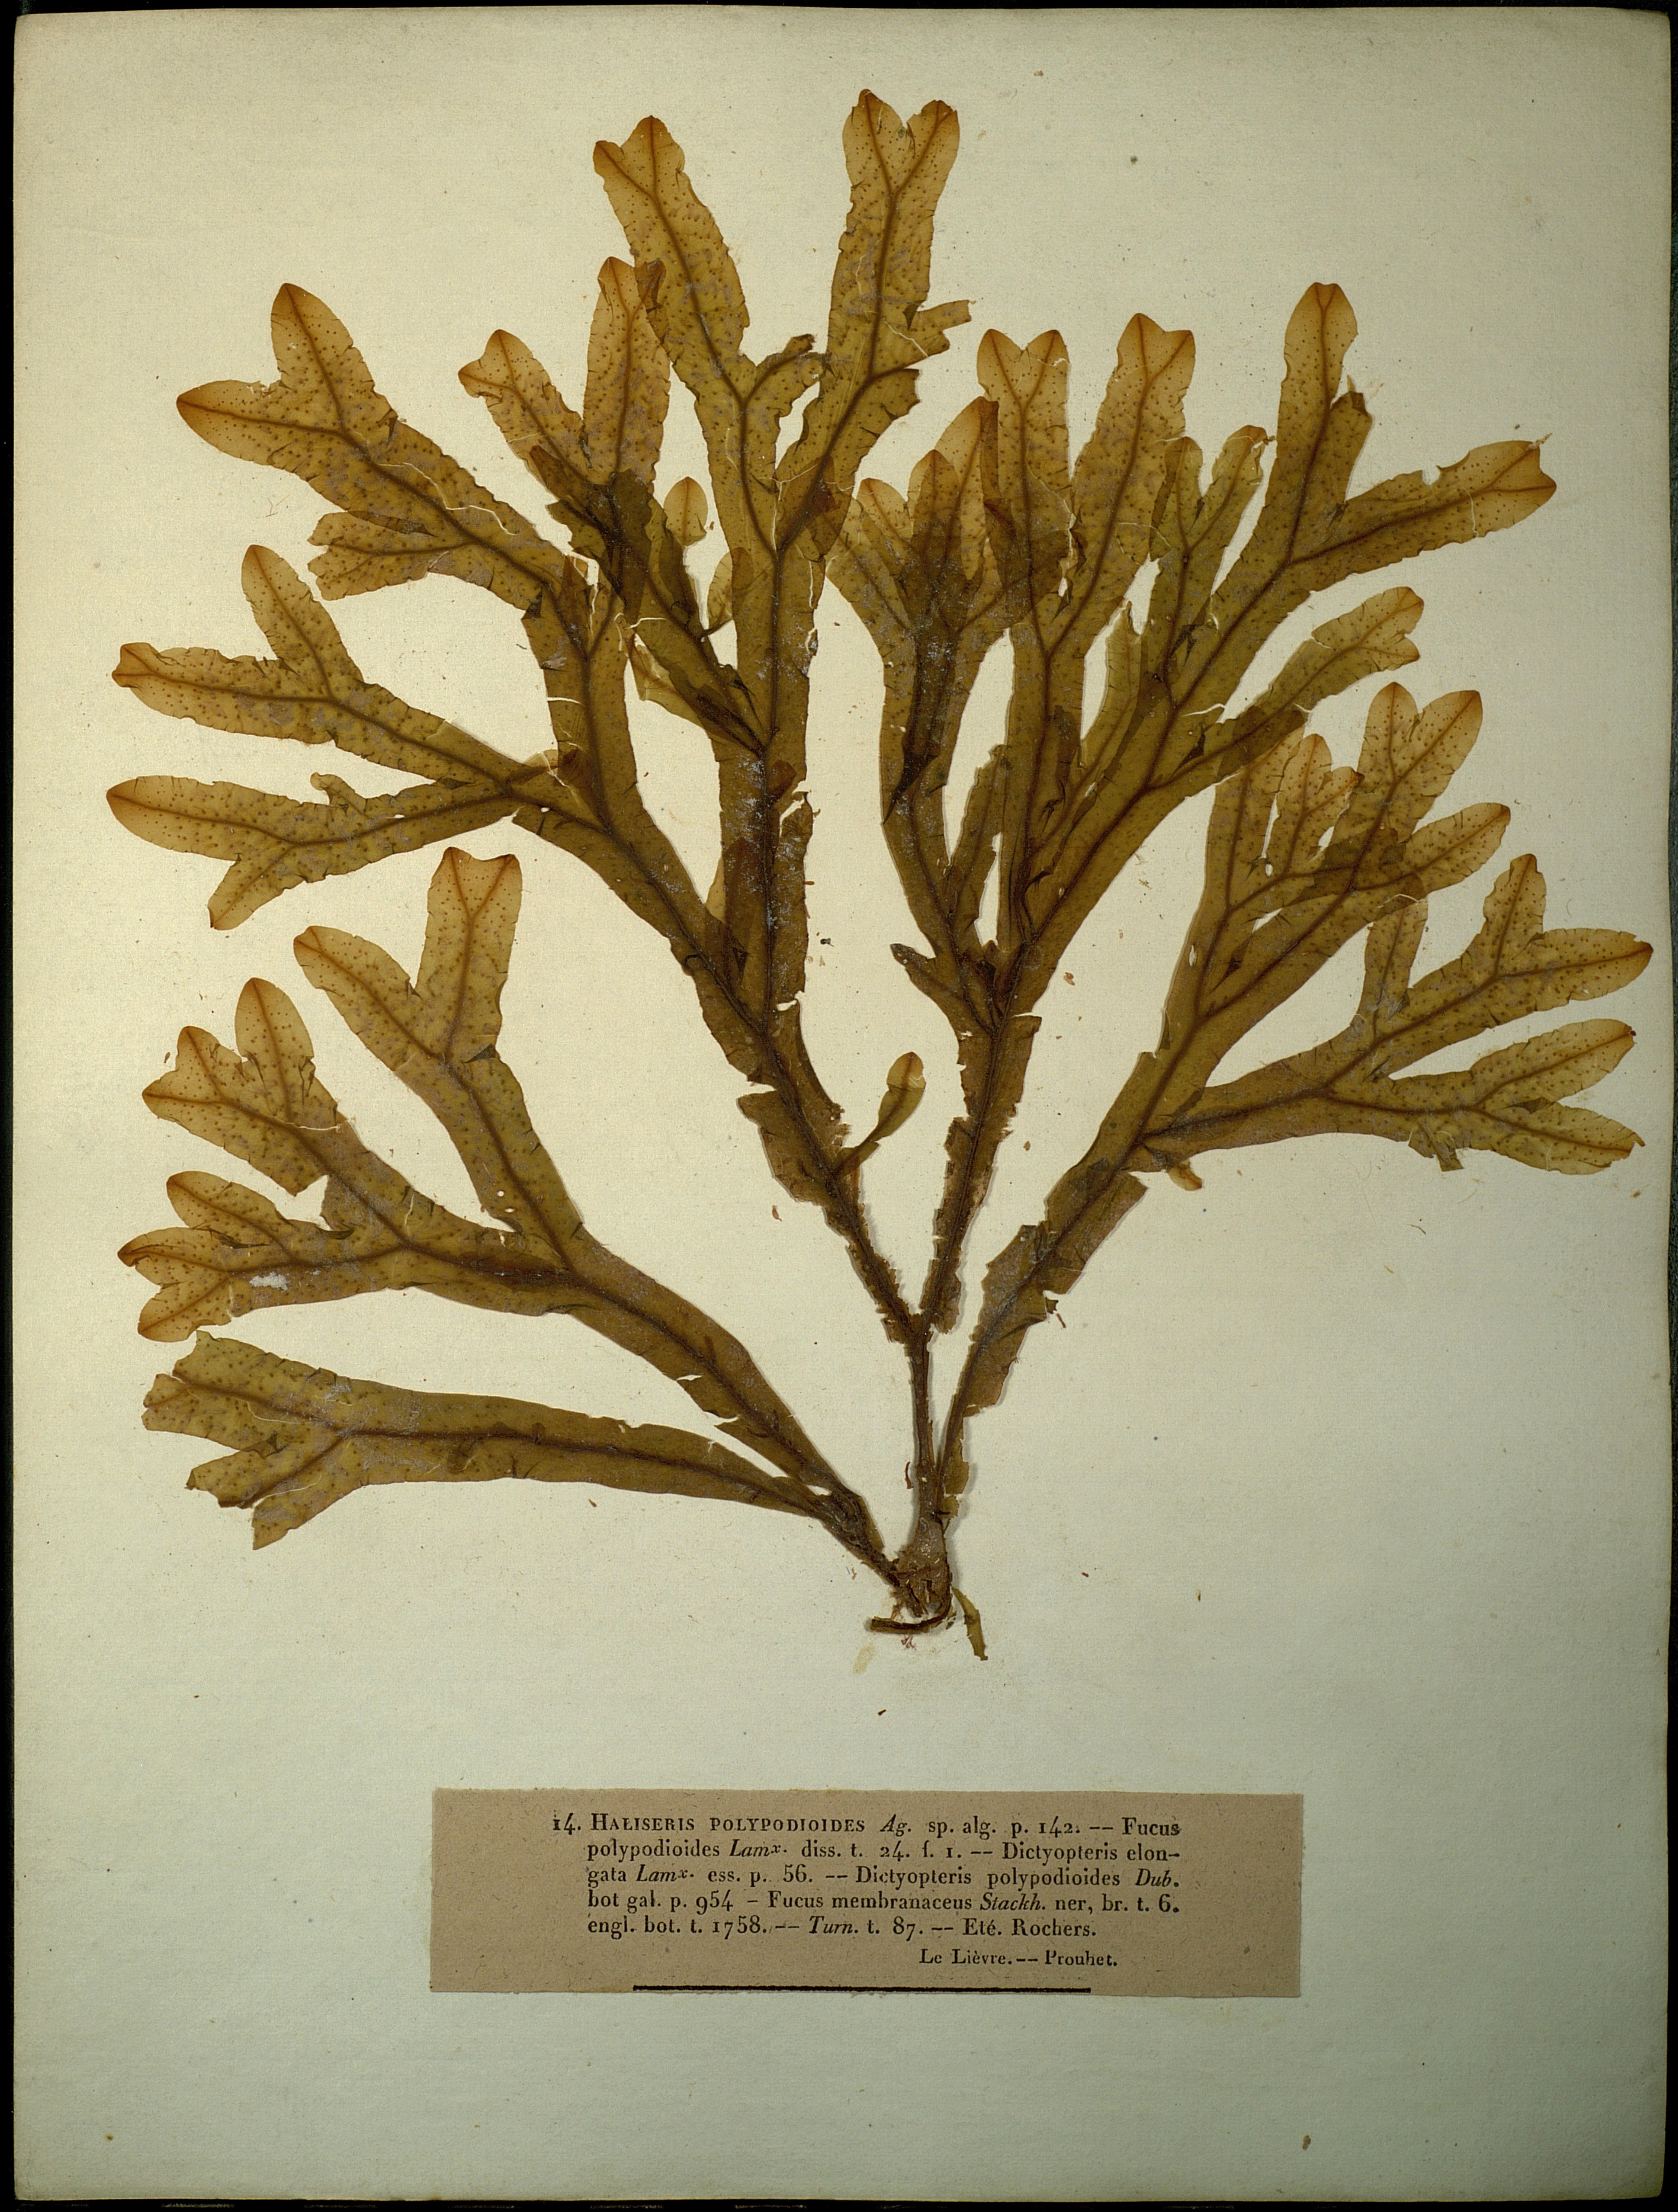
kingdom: Chromista
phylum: Ochrophyta
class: Phaeophyceae
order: Dictyotales
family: Dictyotaceae
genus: Dictyopteris
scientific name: Dictyopteris polypodioides
